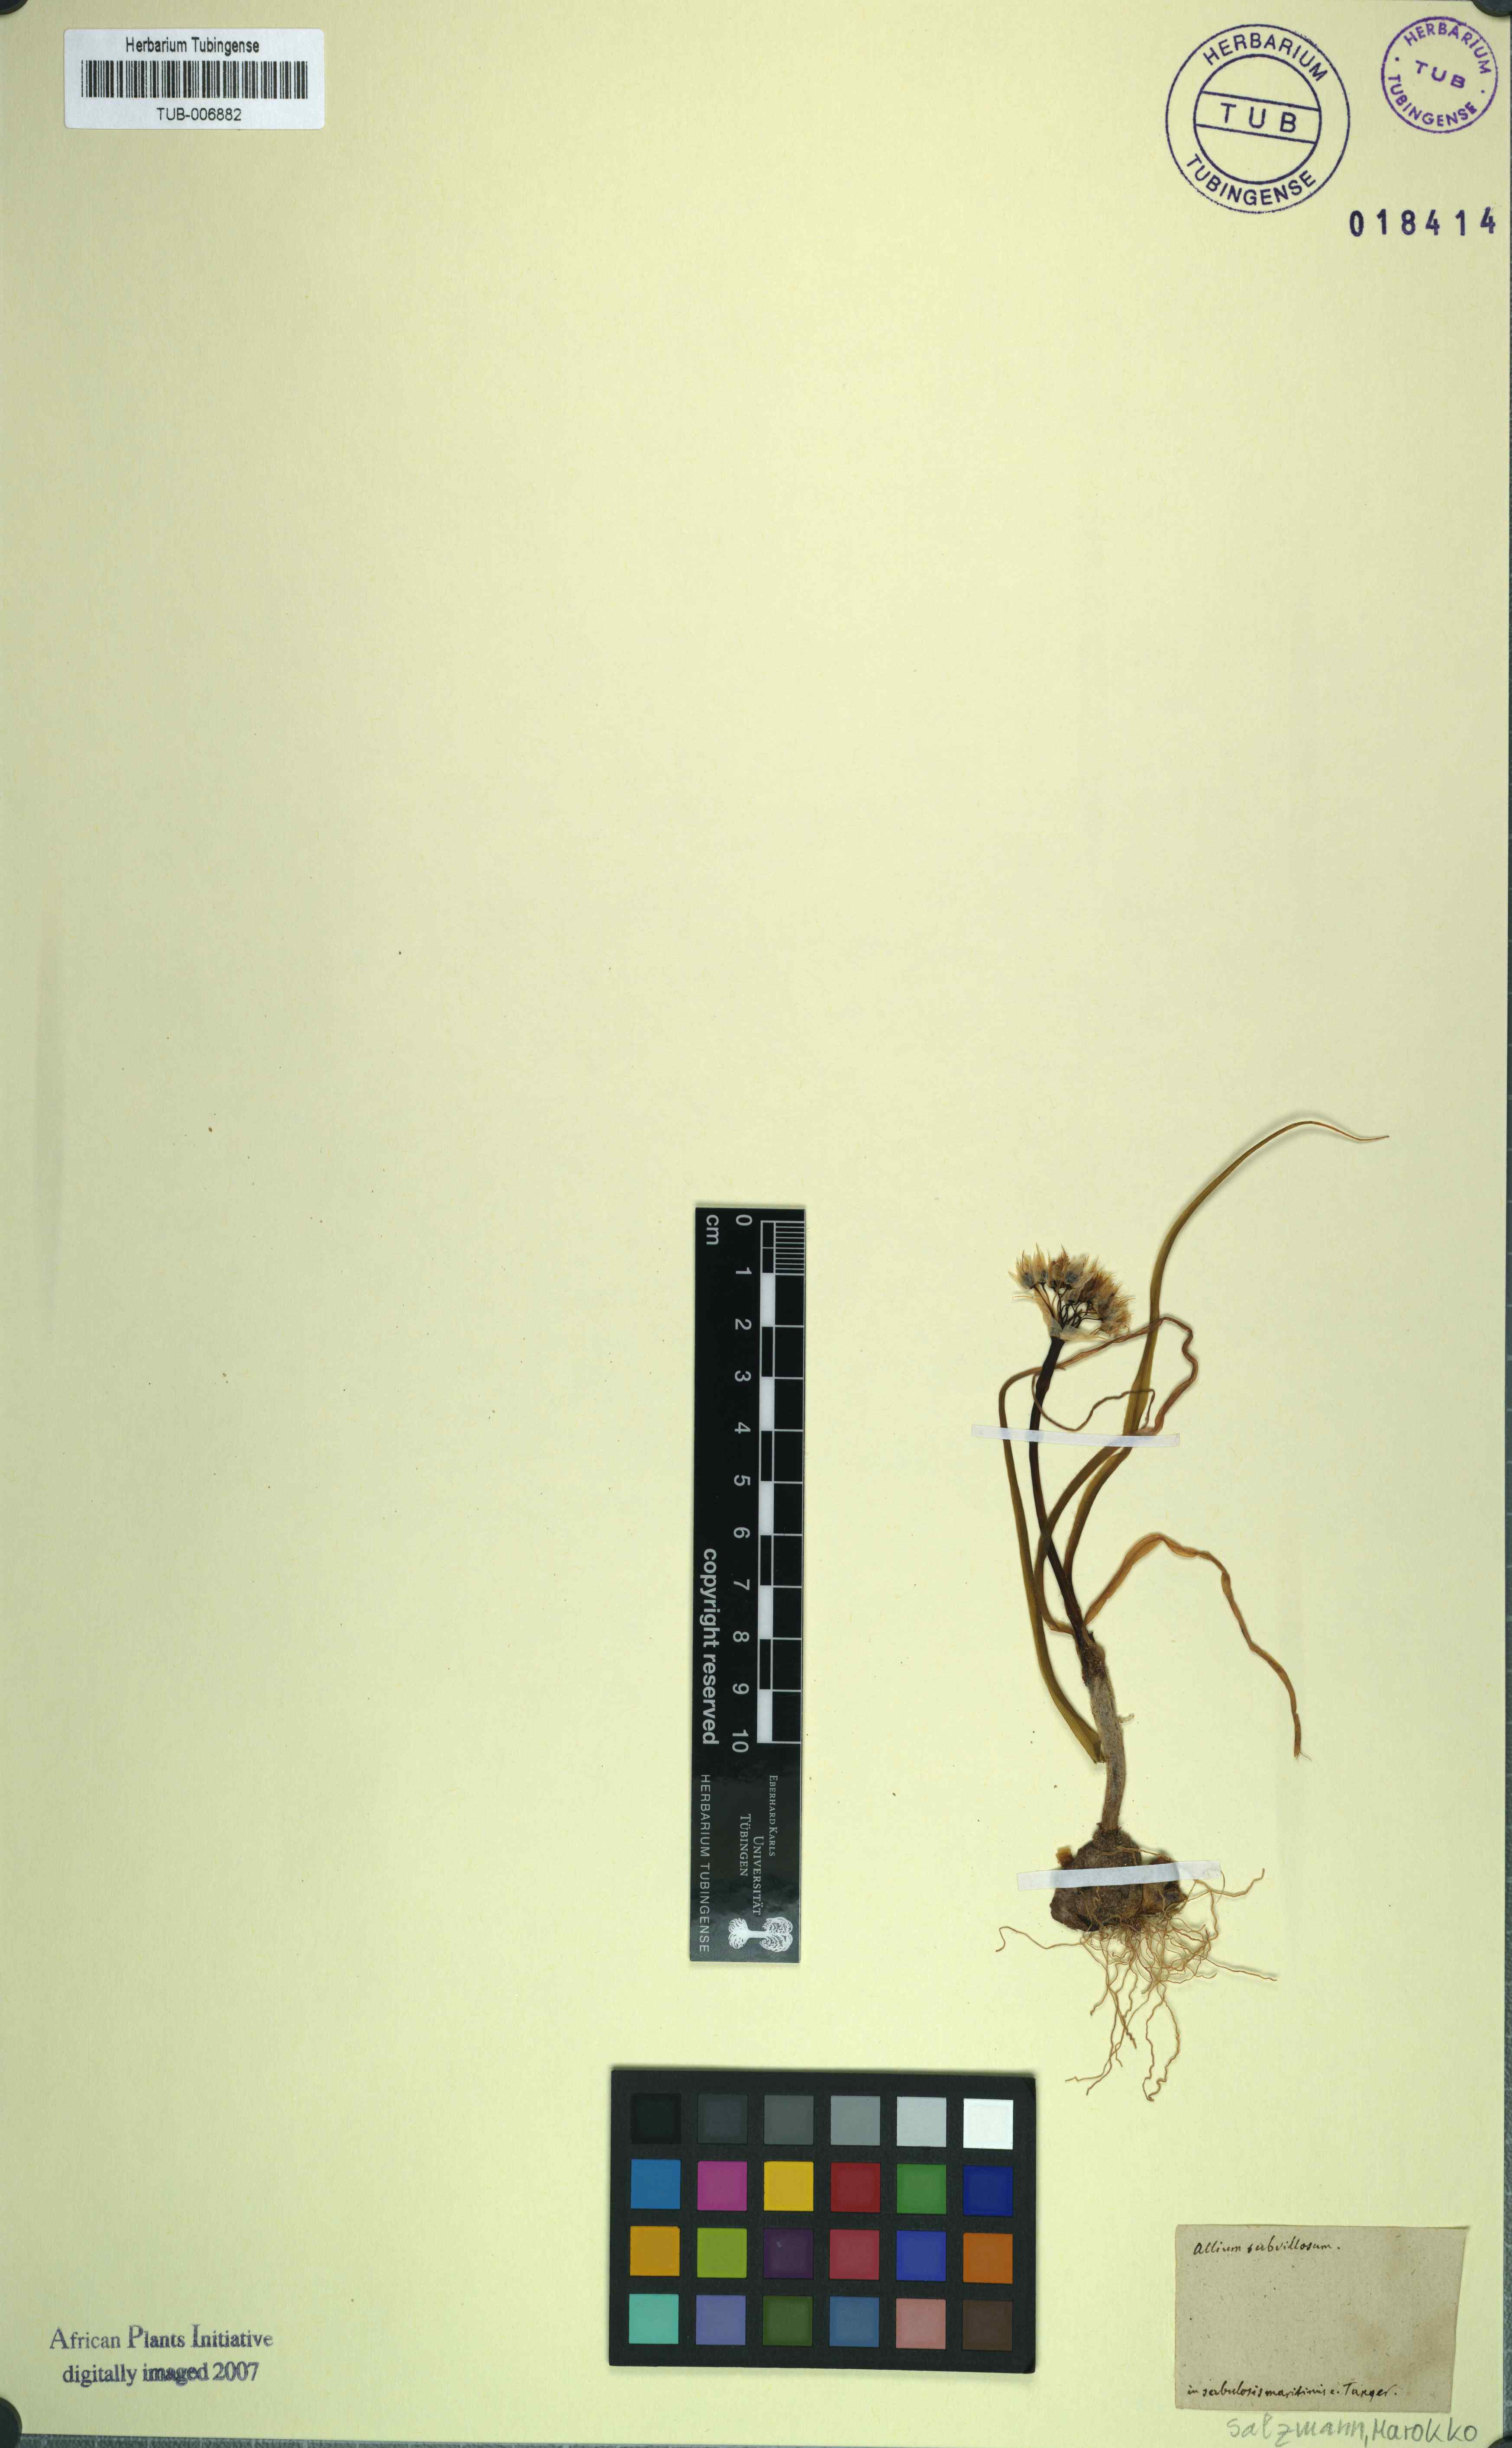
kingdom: Plantae
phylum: Tracheophyta
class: Liliopsida
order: Asparagales
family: Amaryllidaceae
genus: Allium
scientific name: Allium subvillosum
